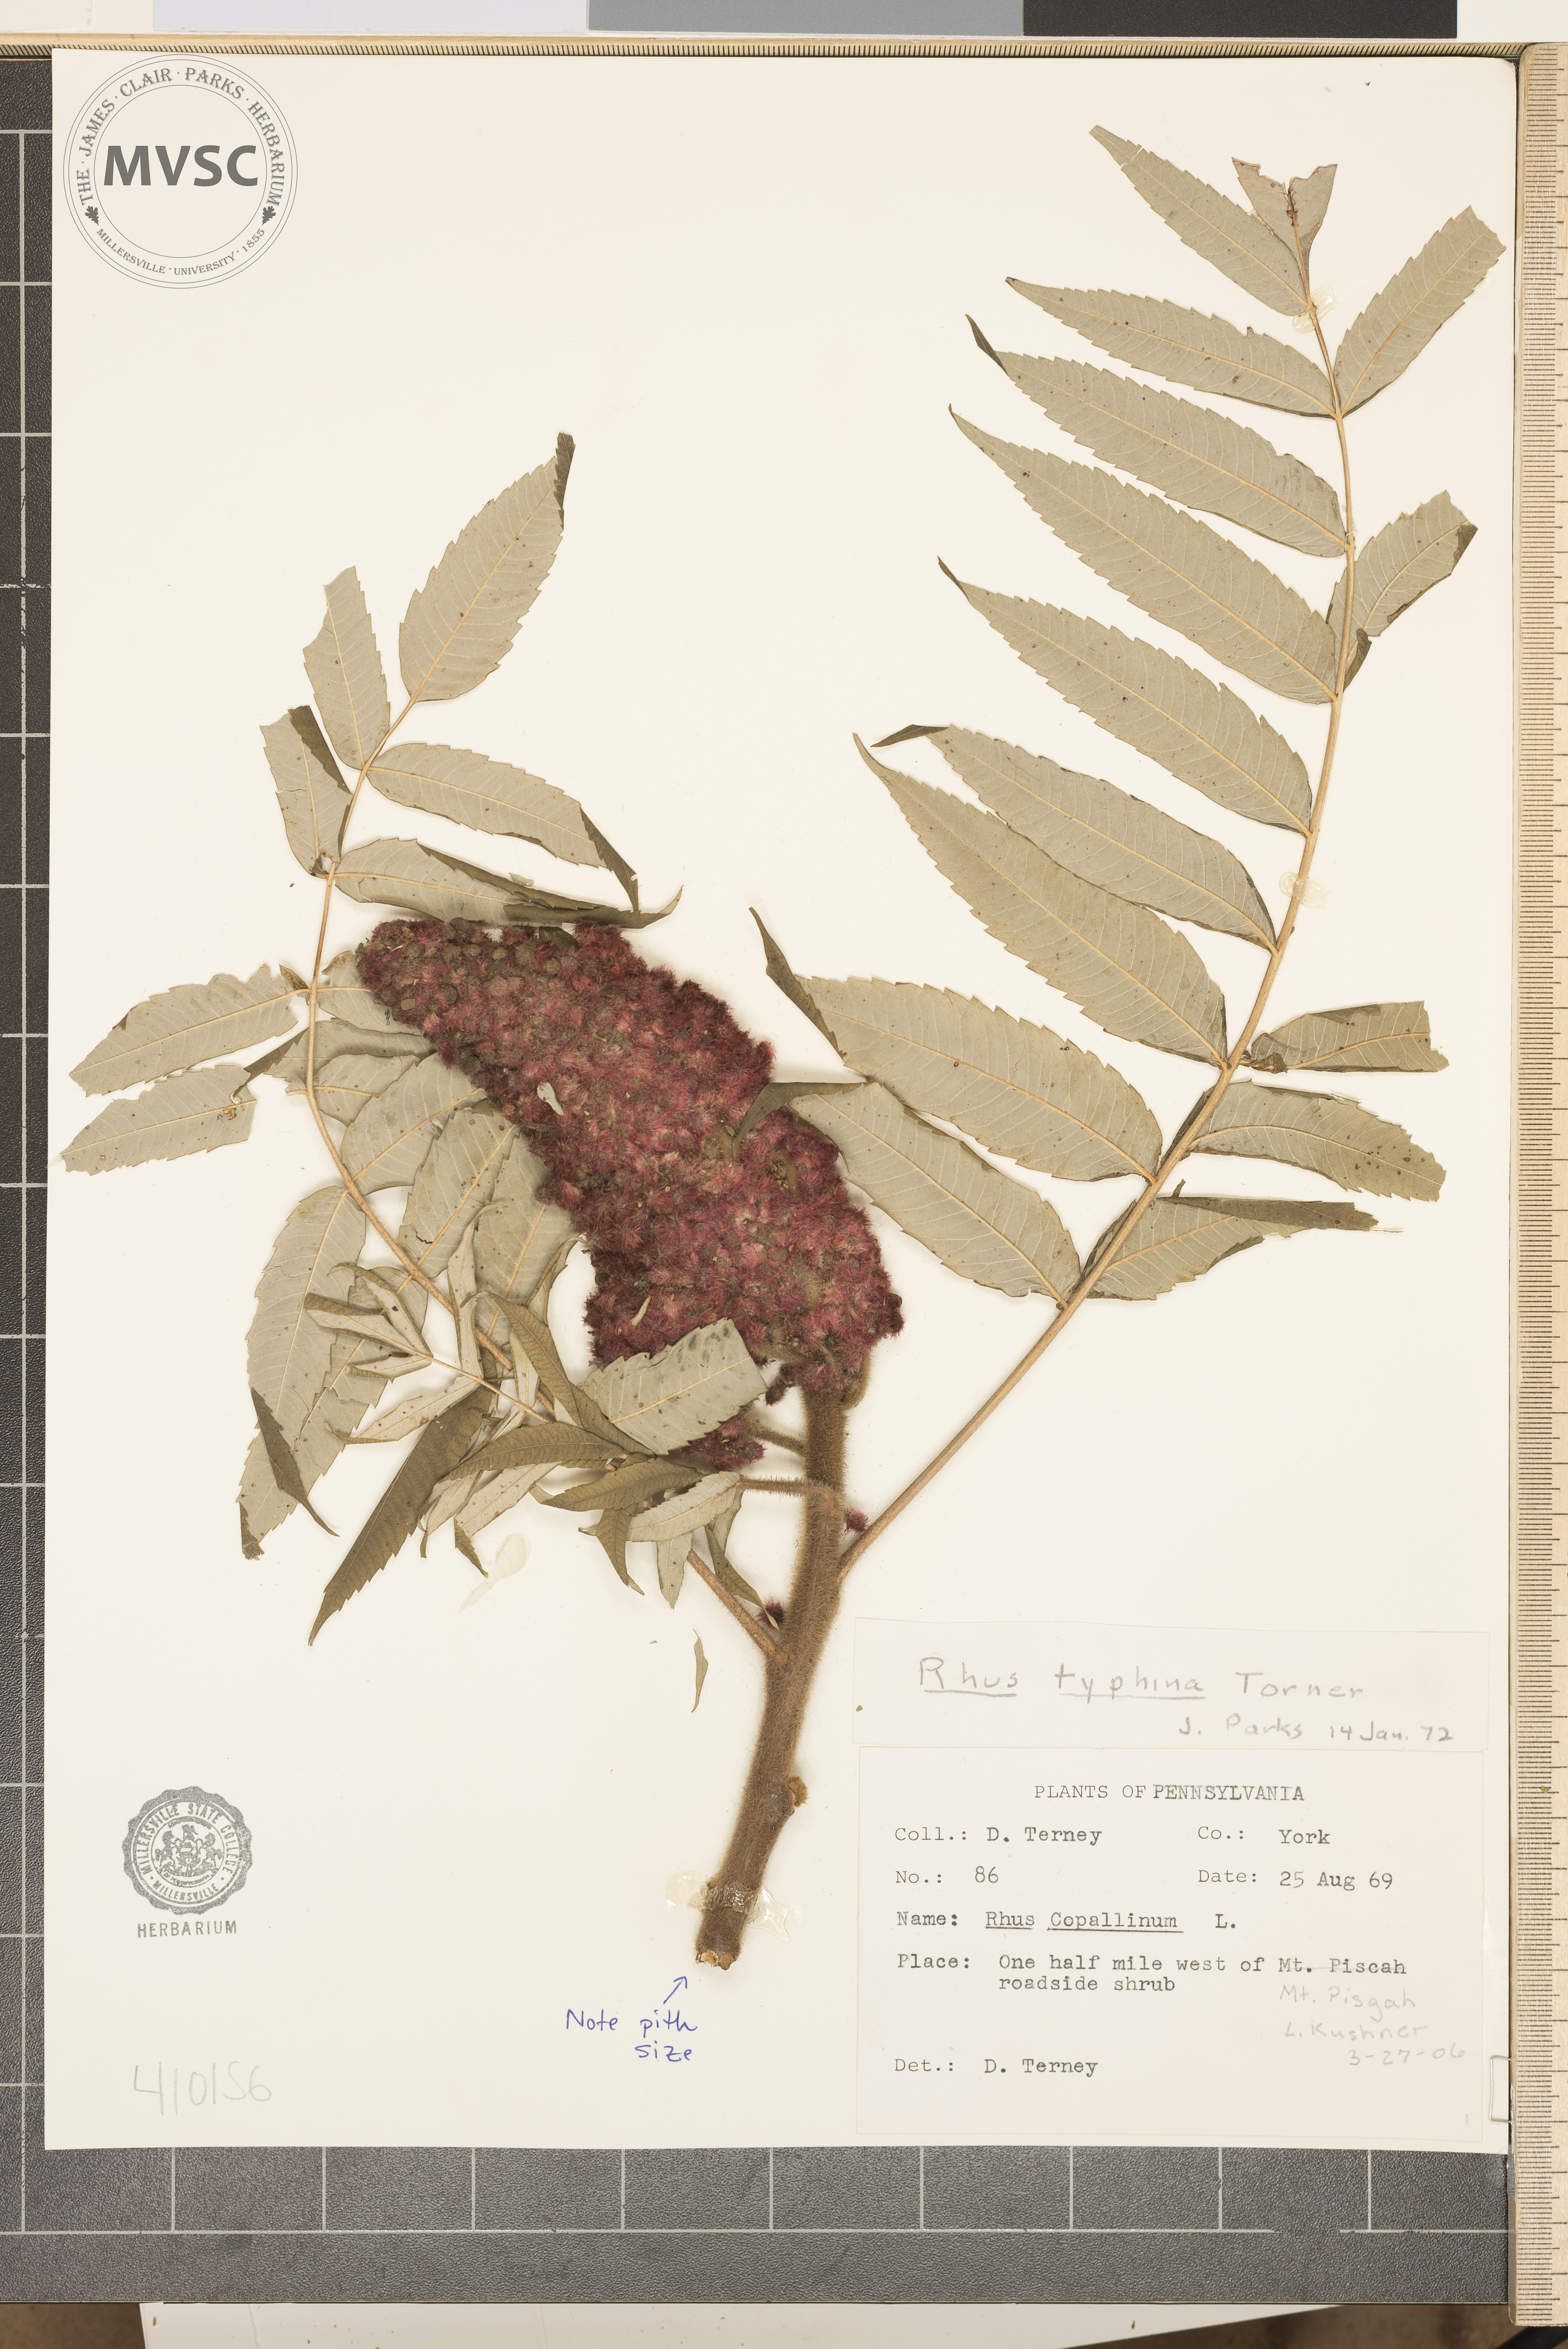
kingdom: Plantae
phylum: Tracheophyta
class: Magnoliopsida
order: Sapindales
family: Anacardiaceae
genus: Rhus
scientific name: Rhus typhina
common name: Staghorn sumac
